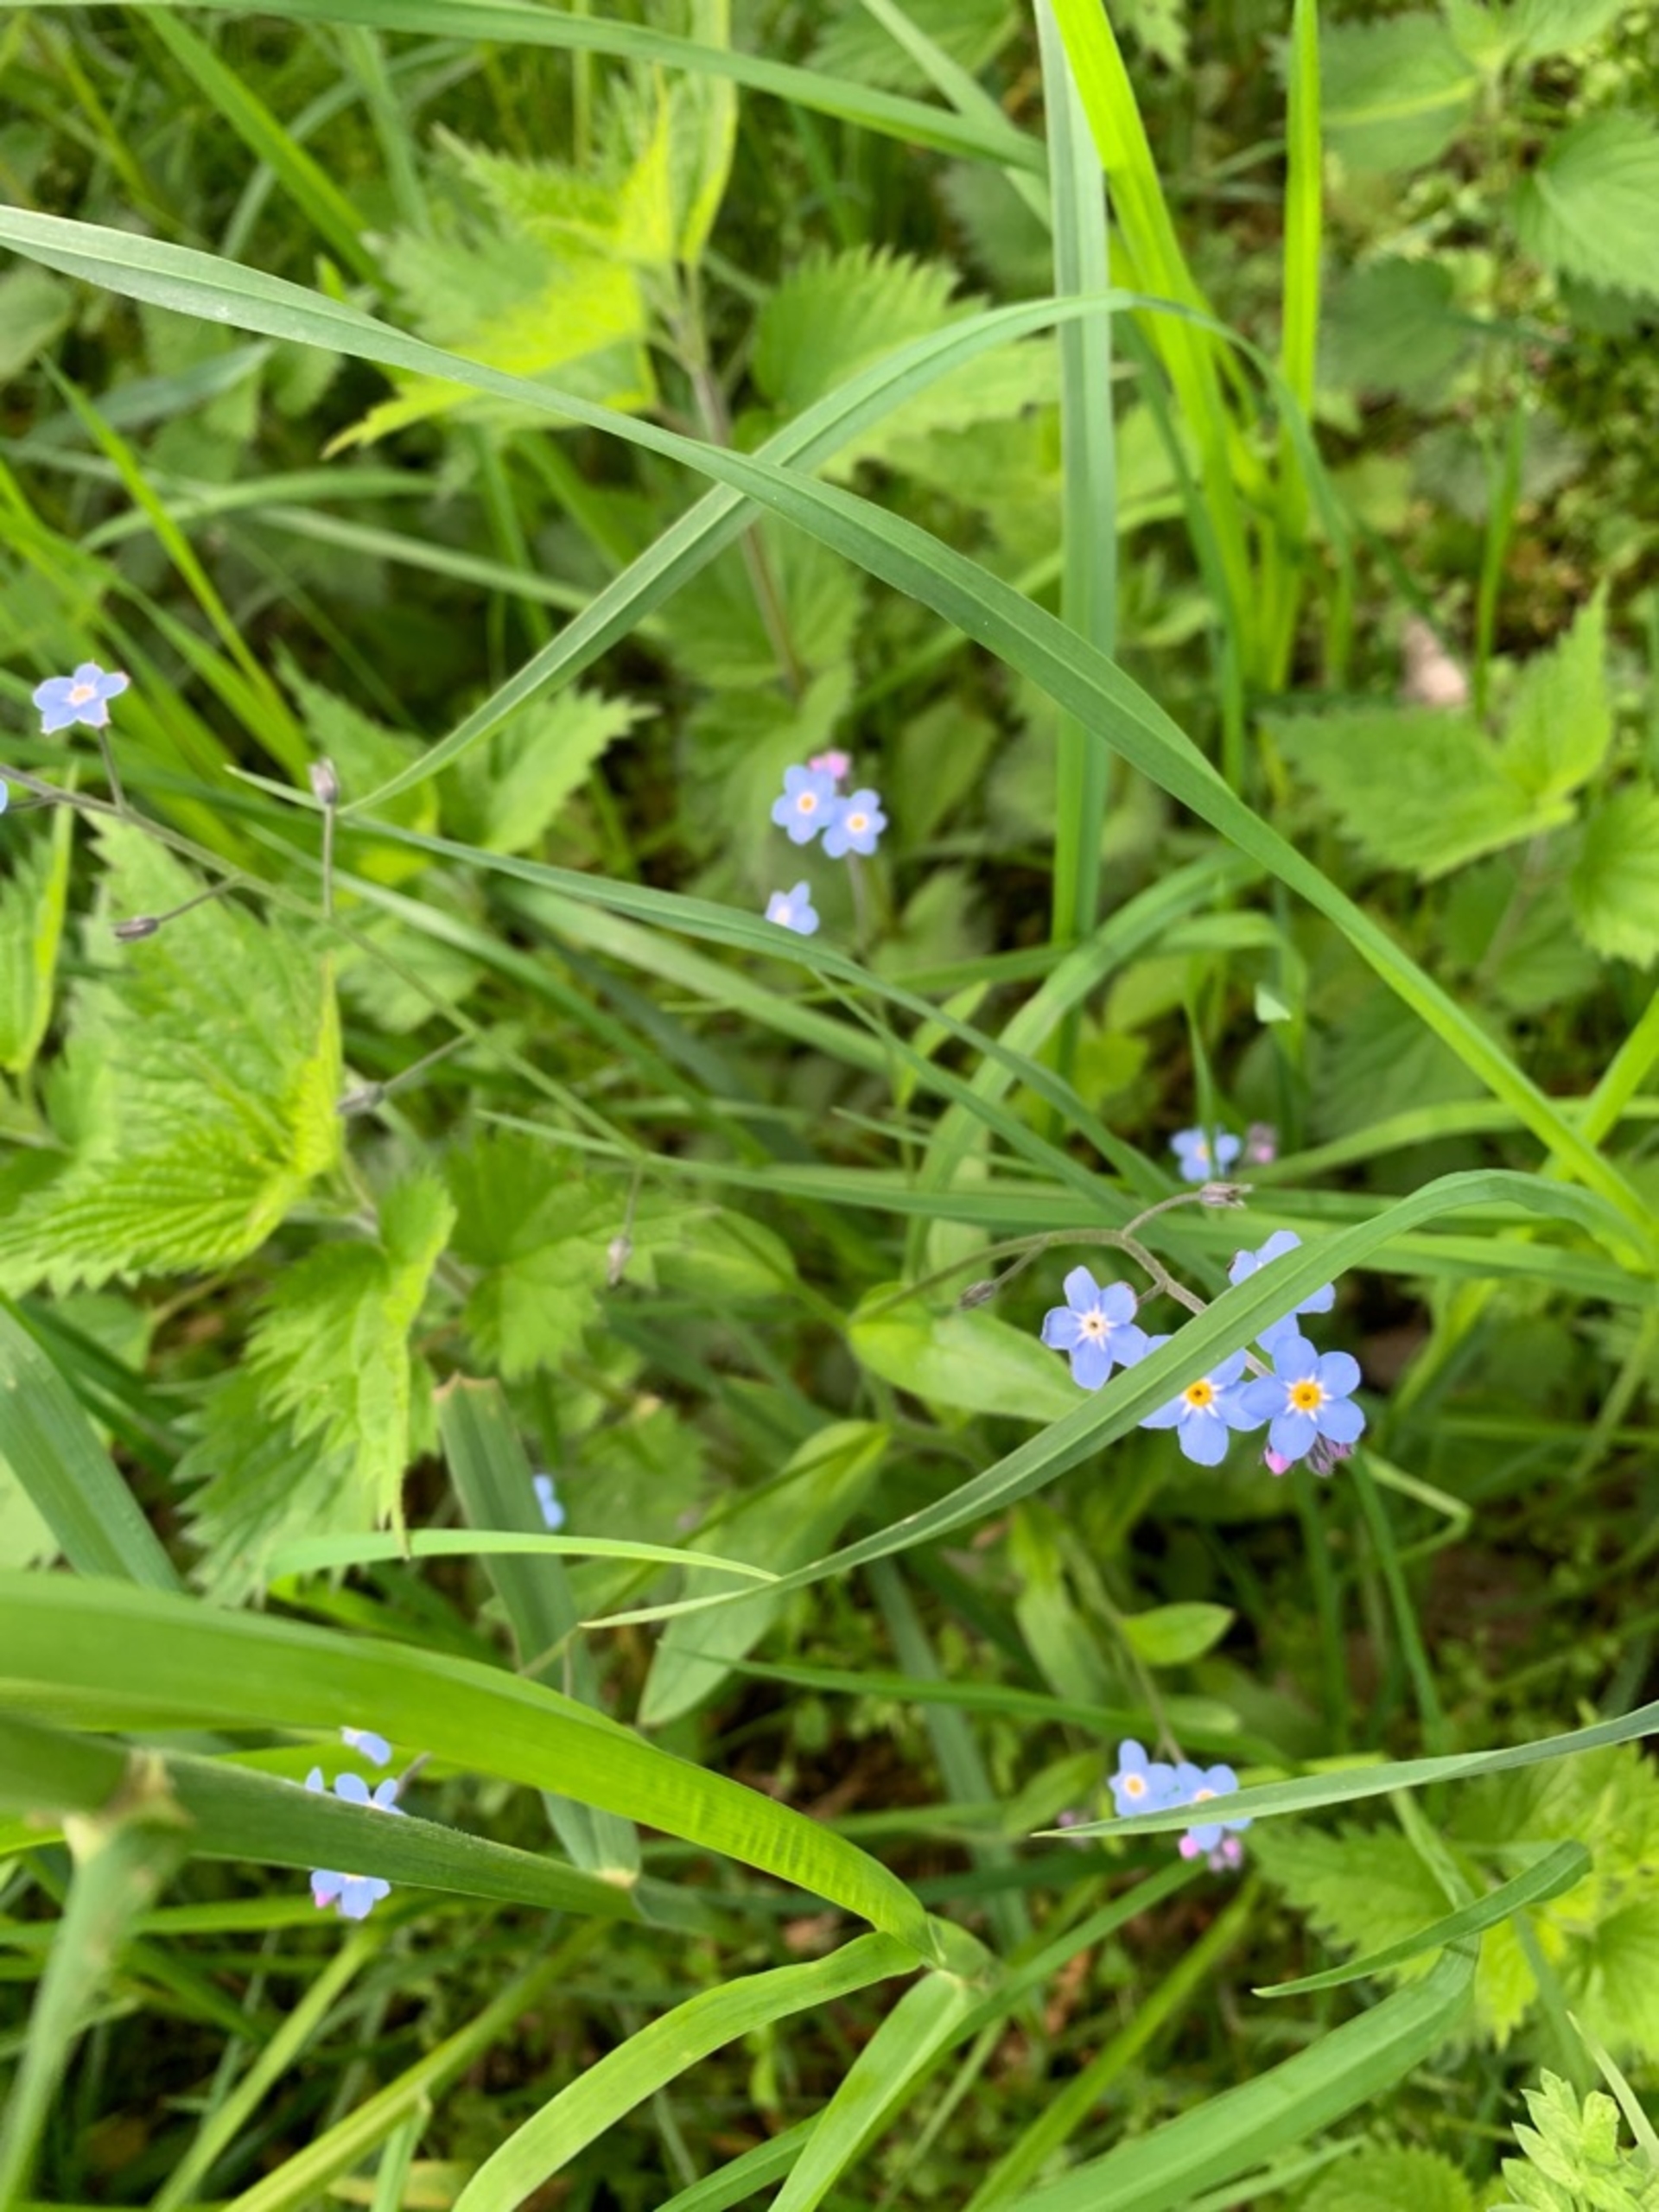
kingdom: Plantae
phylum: Tracheophyta
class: Magnoliopsida
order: Boraginales
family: Boraginaceae
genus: Myosotis
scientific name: Myosotis sylvatica
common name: Skov-forglemmigej
